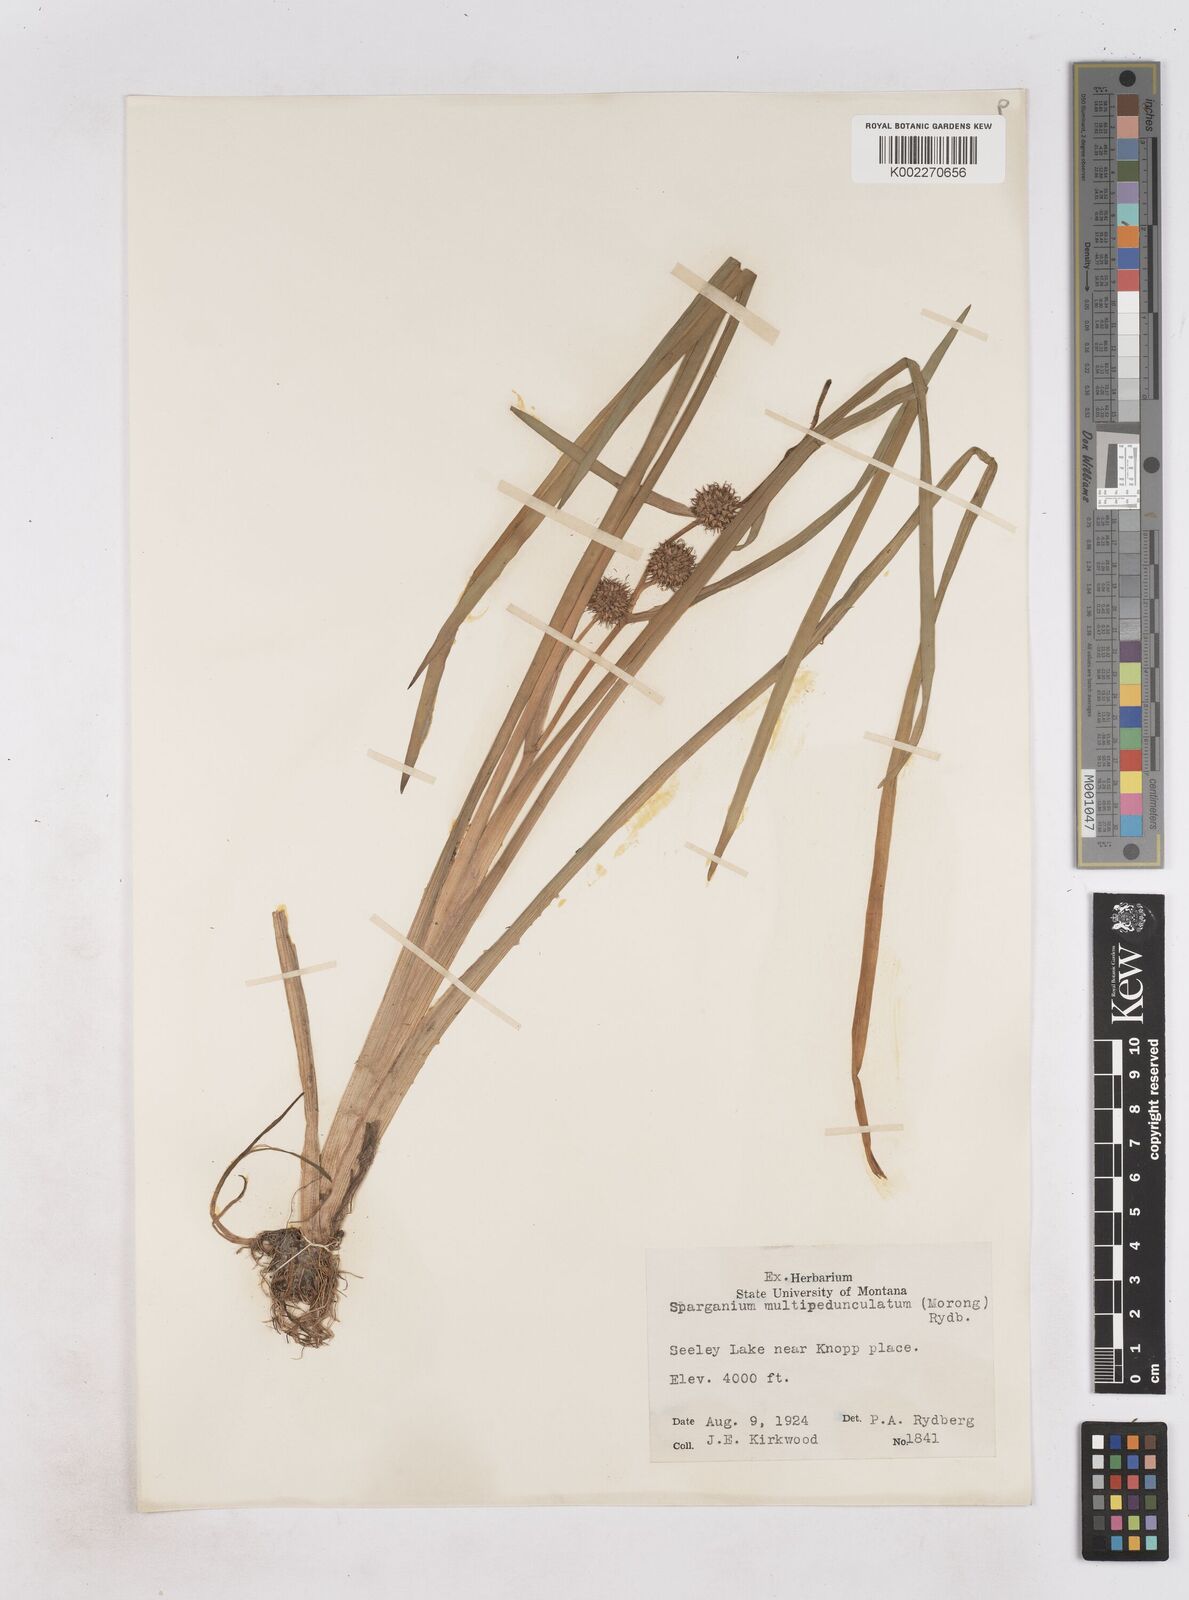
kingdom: Plantae
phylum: Tracheophyta
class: Liliopsida
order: Poales
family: Typhaceae
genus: Sparganium
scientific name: Sparganium emersum
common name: Unbranched bur-reed
